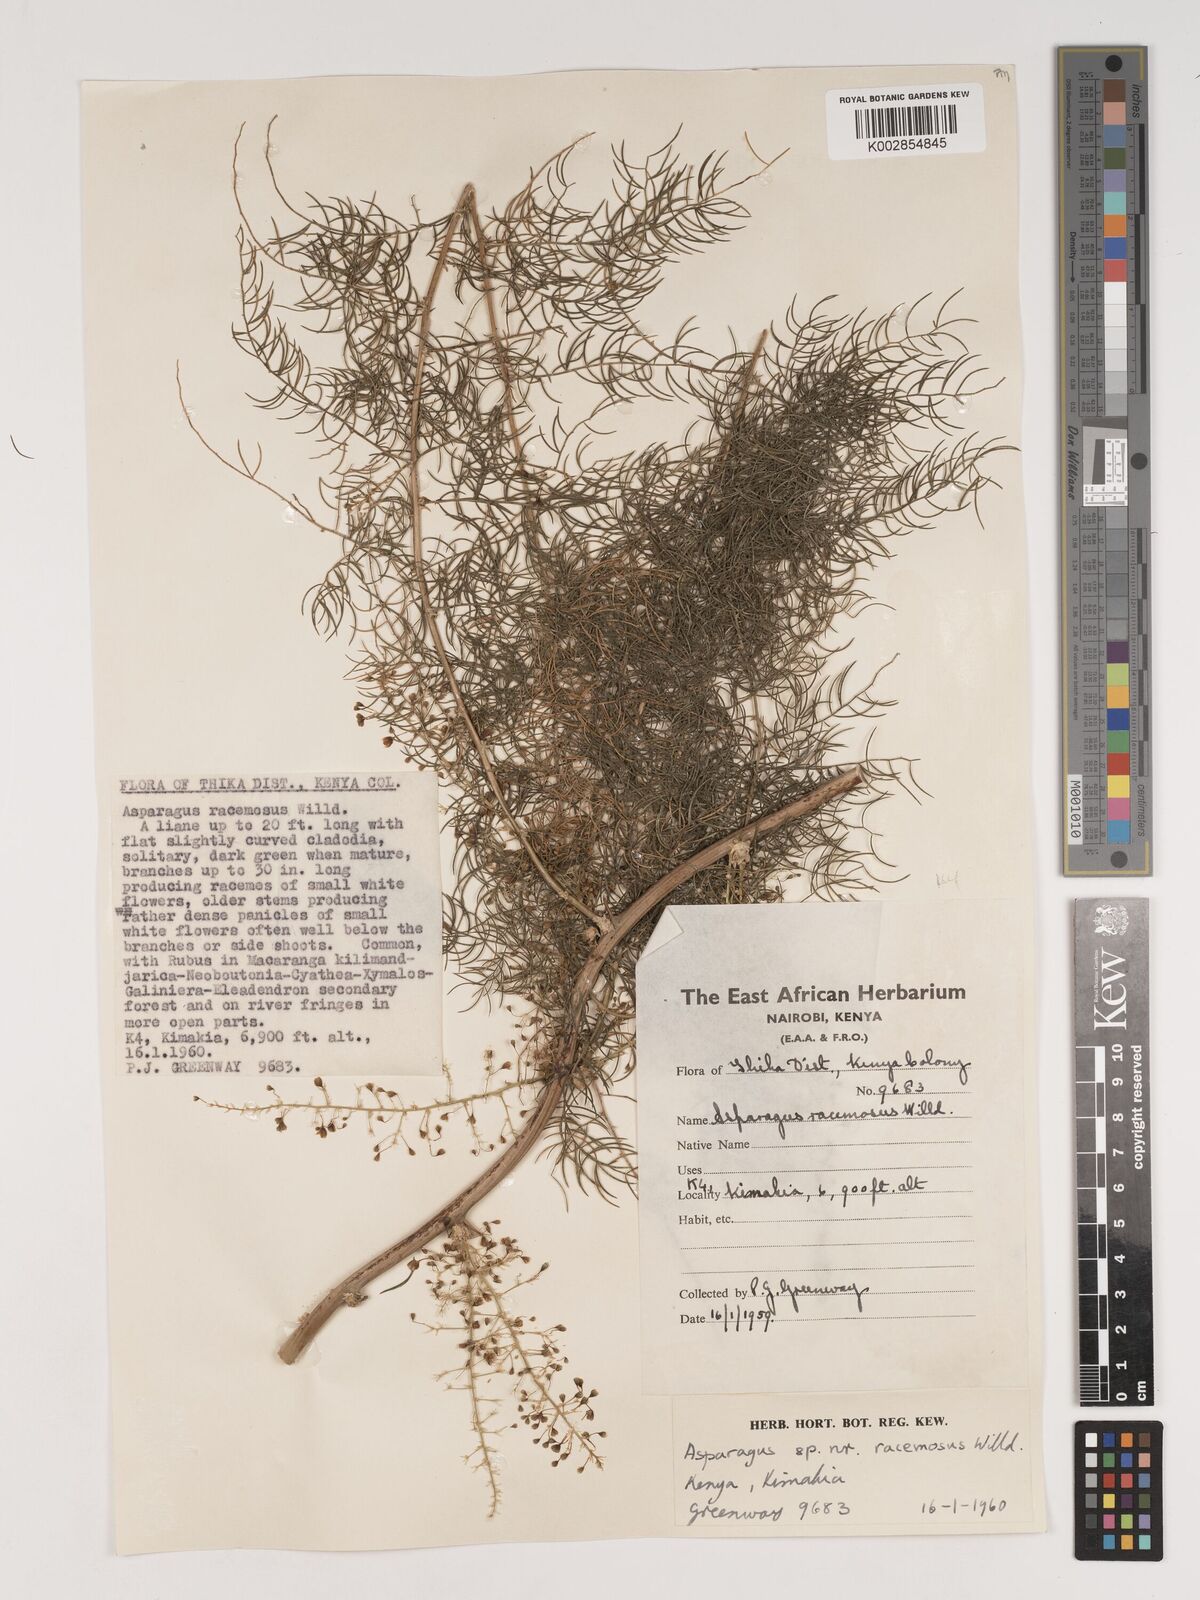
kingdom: Plantae
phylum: Tracheophyta
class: Liliopsida
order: Asparagales
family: Asparagaceae
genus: Asparagus
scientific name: Asparagus racemosus
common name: Asparagus-fern
